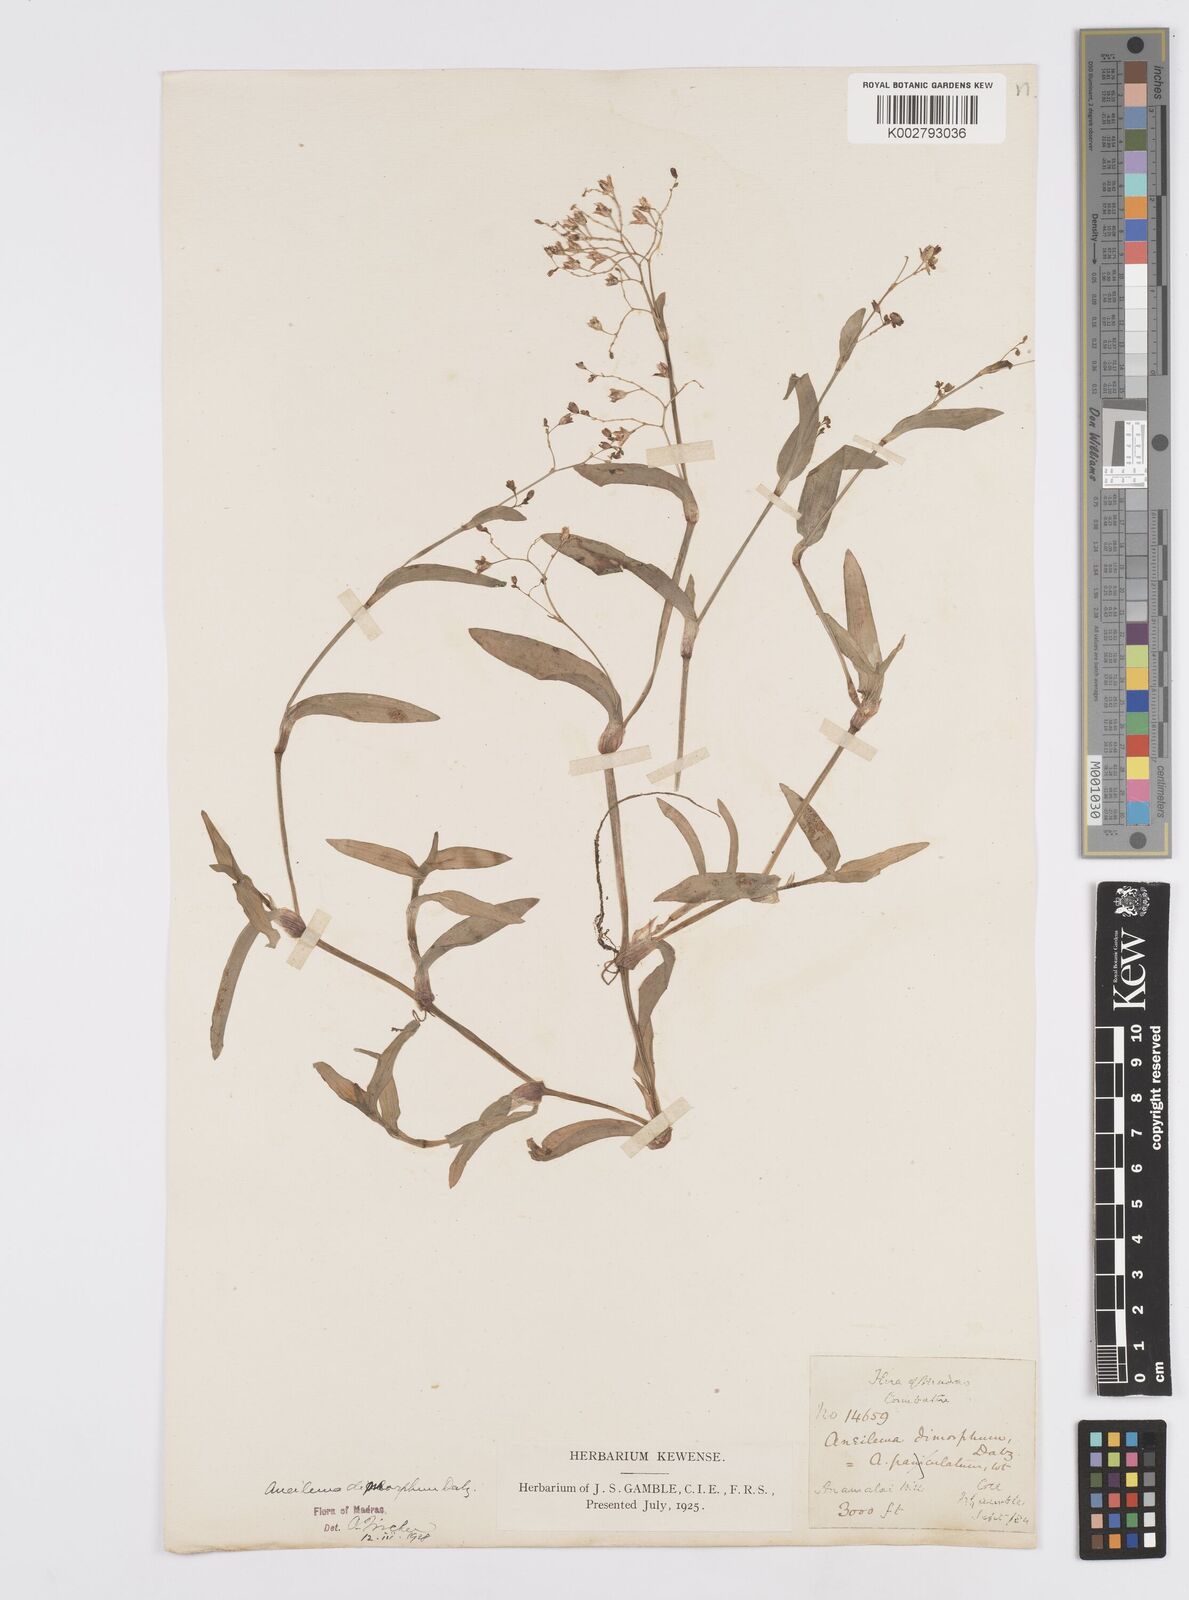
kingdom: Plantae
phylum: Tracheophyta
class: Liliopsida
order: Commelinales
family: Commelinaceae
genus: Murdannia
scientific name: Murdannia dimorpha
